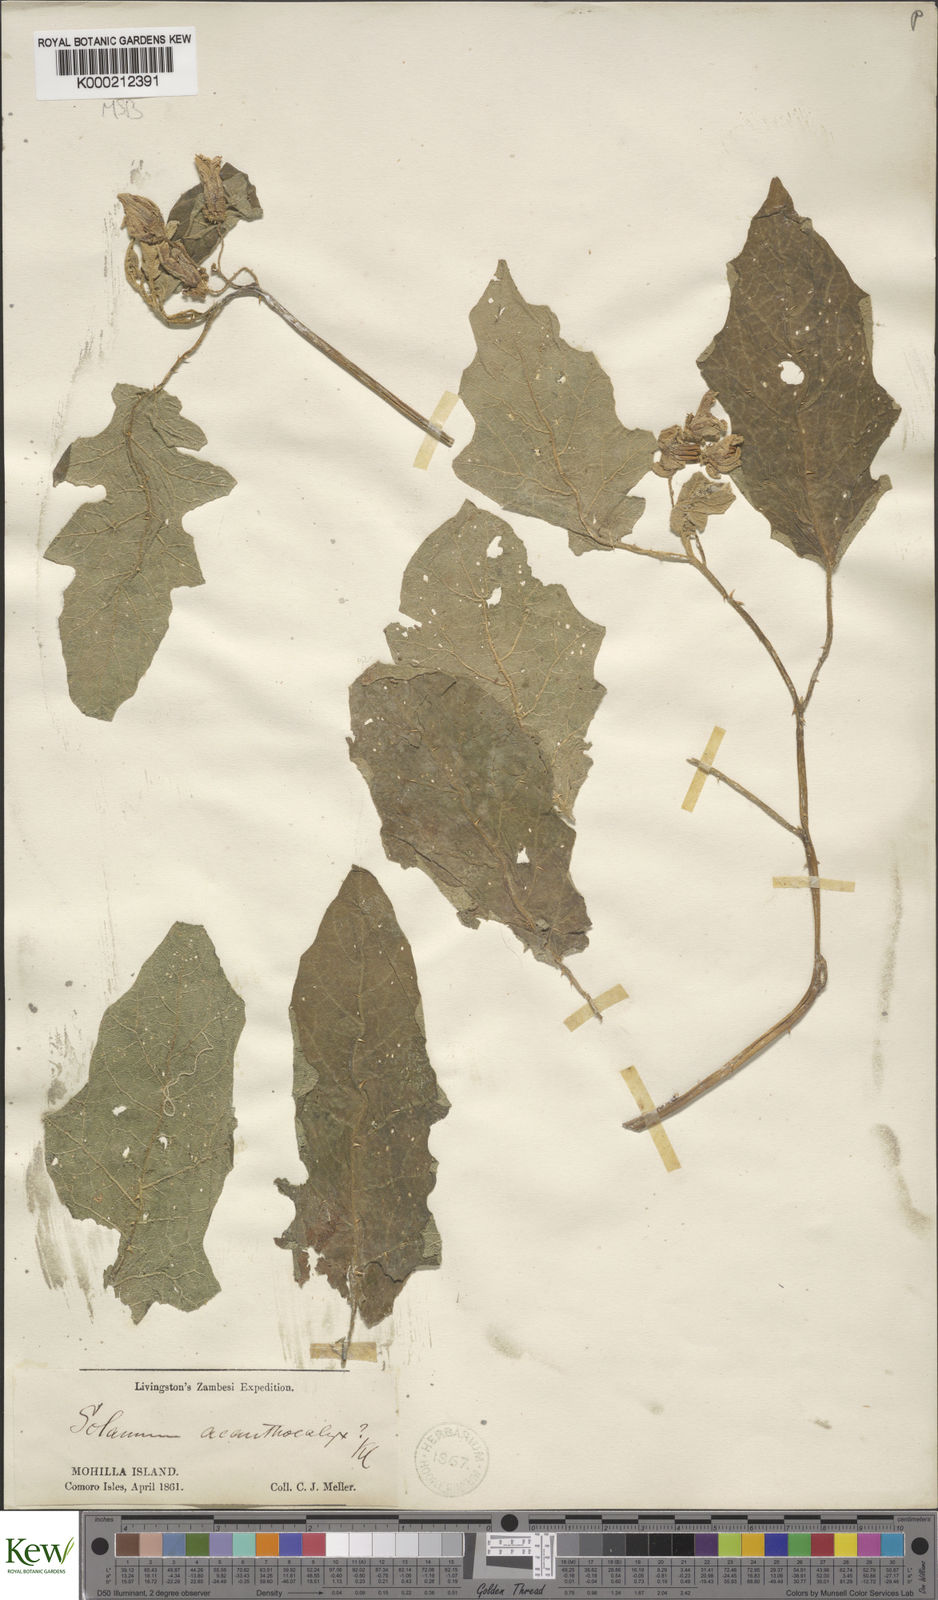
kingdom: Plantae
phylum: Tracheophyta
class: Magnoliopsida
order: Solanales
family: Solanaceae
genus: Solanum
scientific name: Solanum richardii
